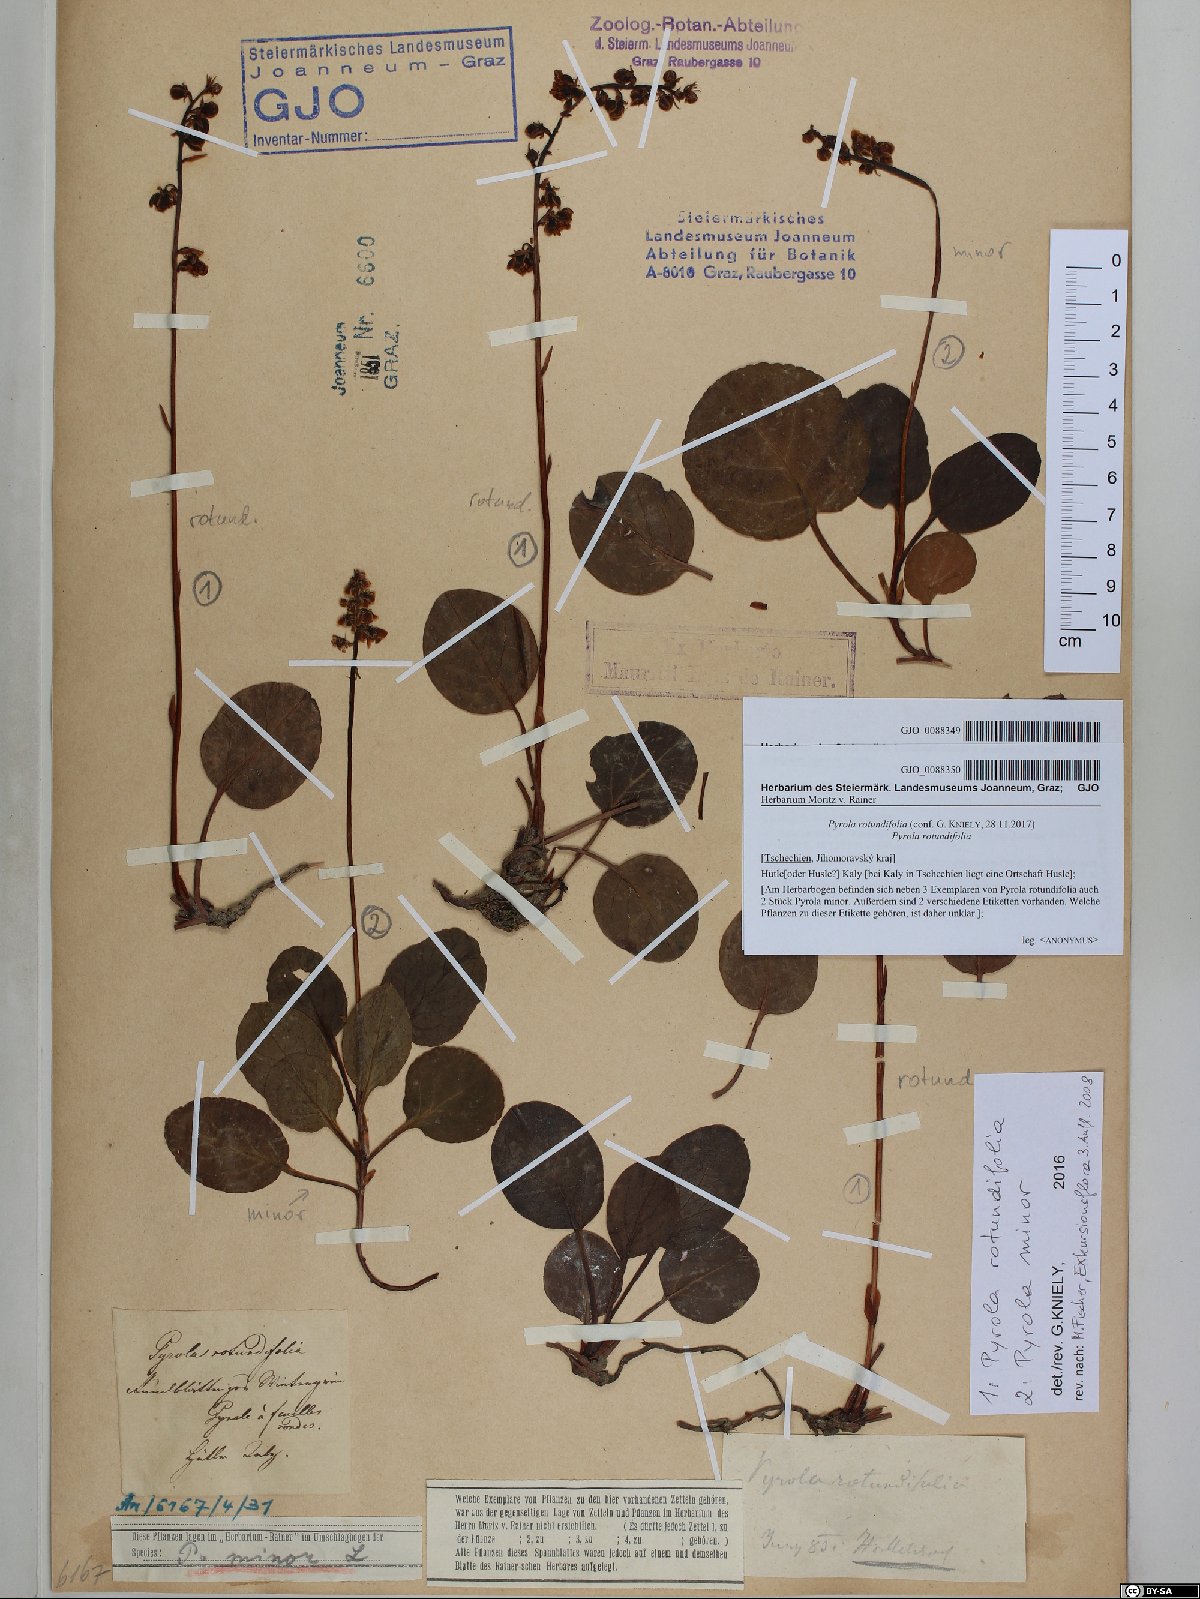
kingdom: Plantae
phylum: Tracheophyta
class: Magnoliopsida
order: Ericales
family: Ericaceae
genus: Pyrola
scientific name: Pyrola minor
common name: Common wintergreen
